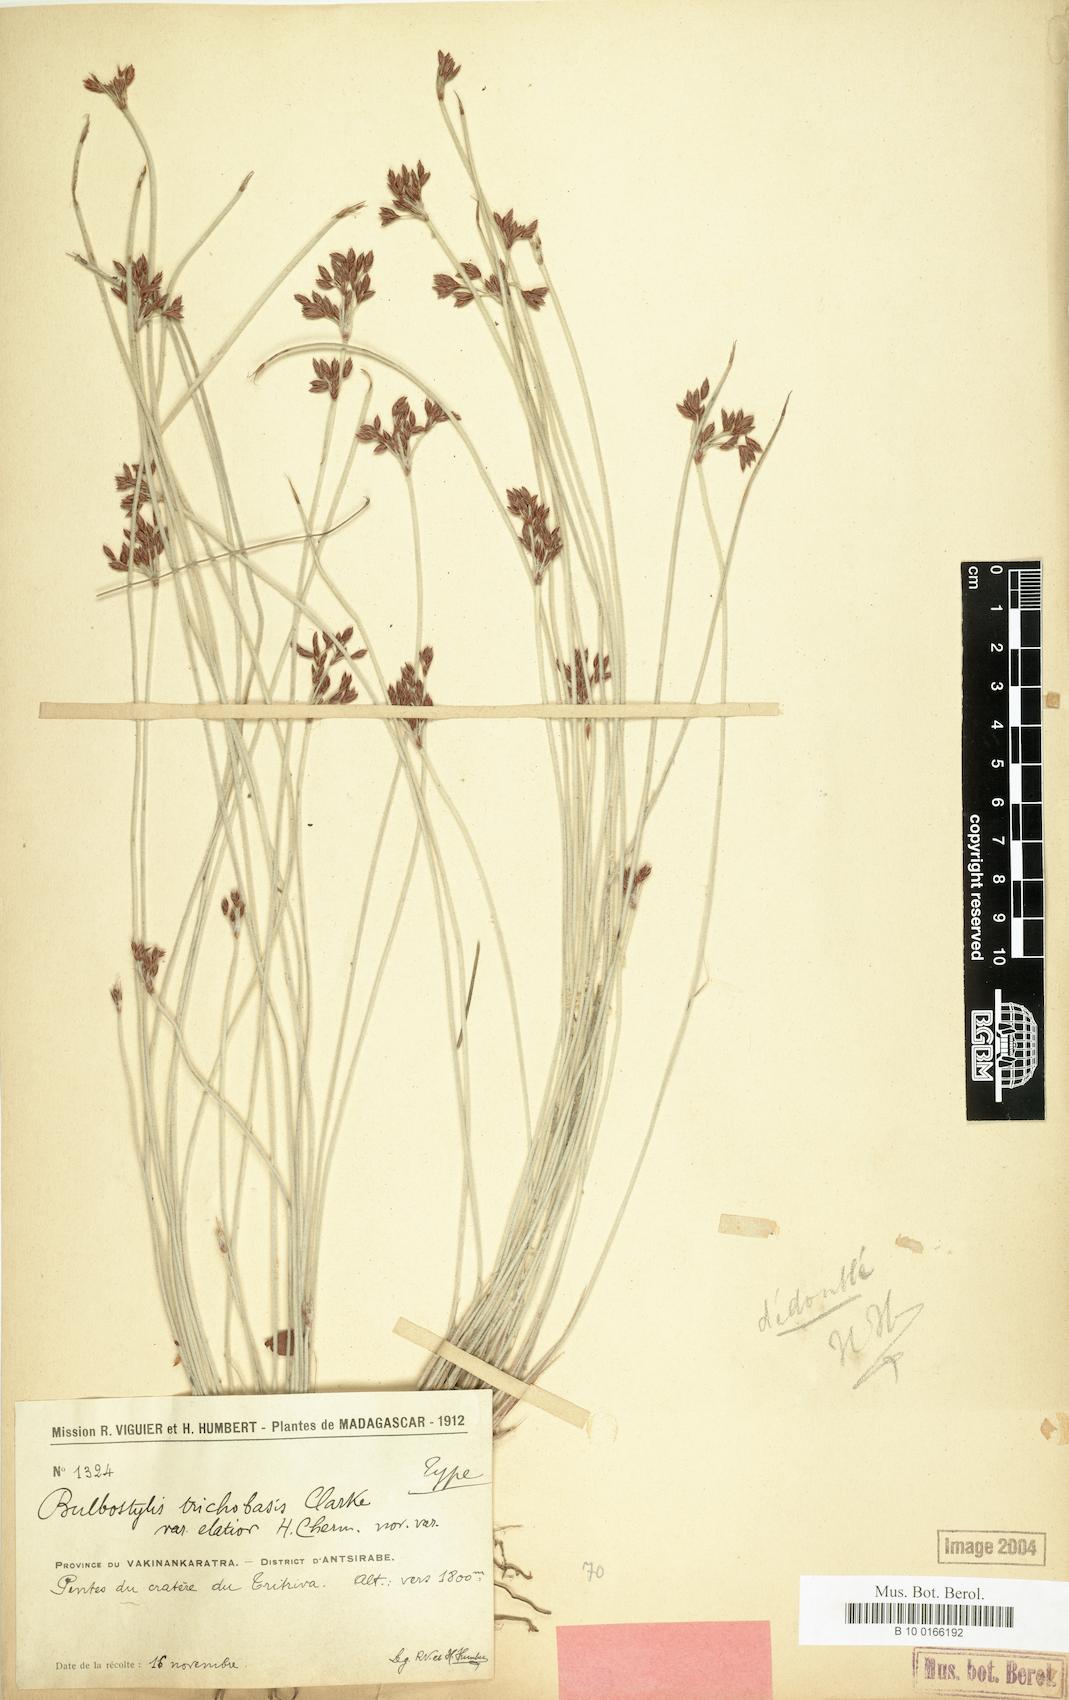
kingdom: Plantae
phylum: Tracheophyta
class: Liliopsida
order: Poales
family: Cyperaceae
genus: Bulbostylis
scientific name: Bulbostylis trichobasis
